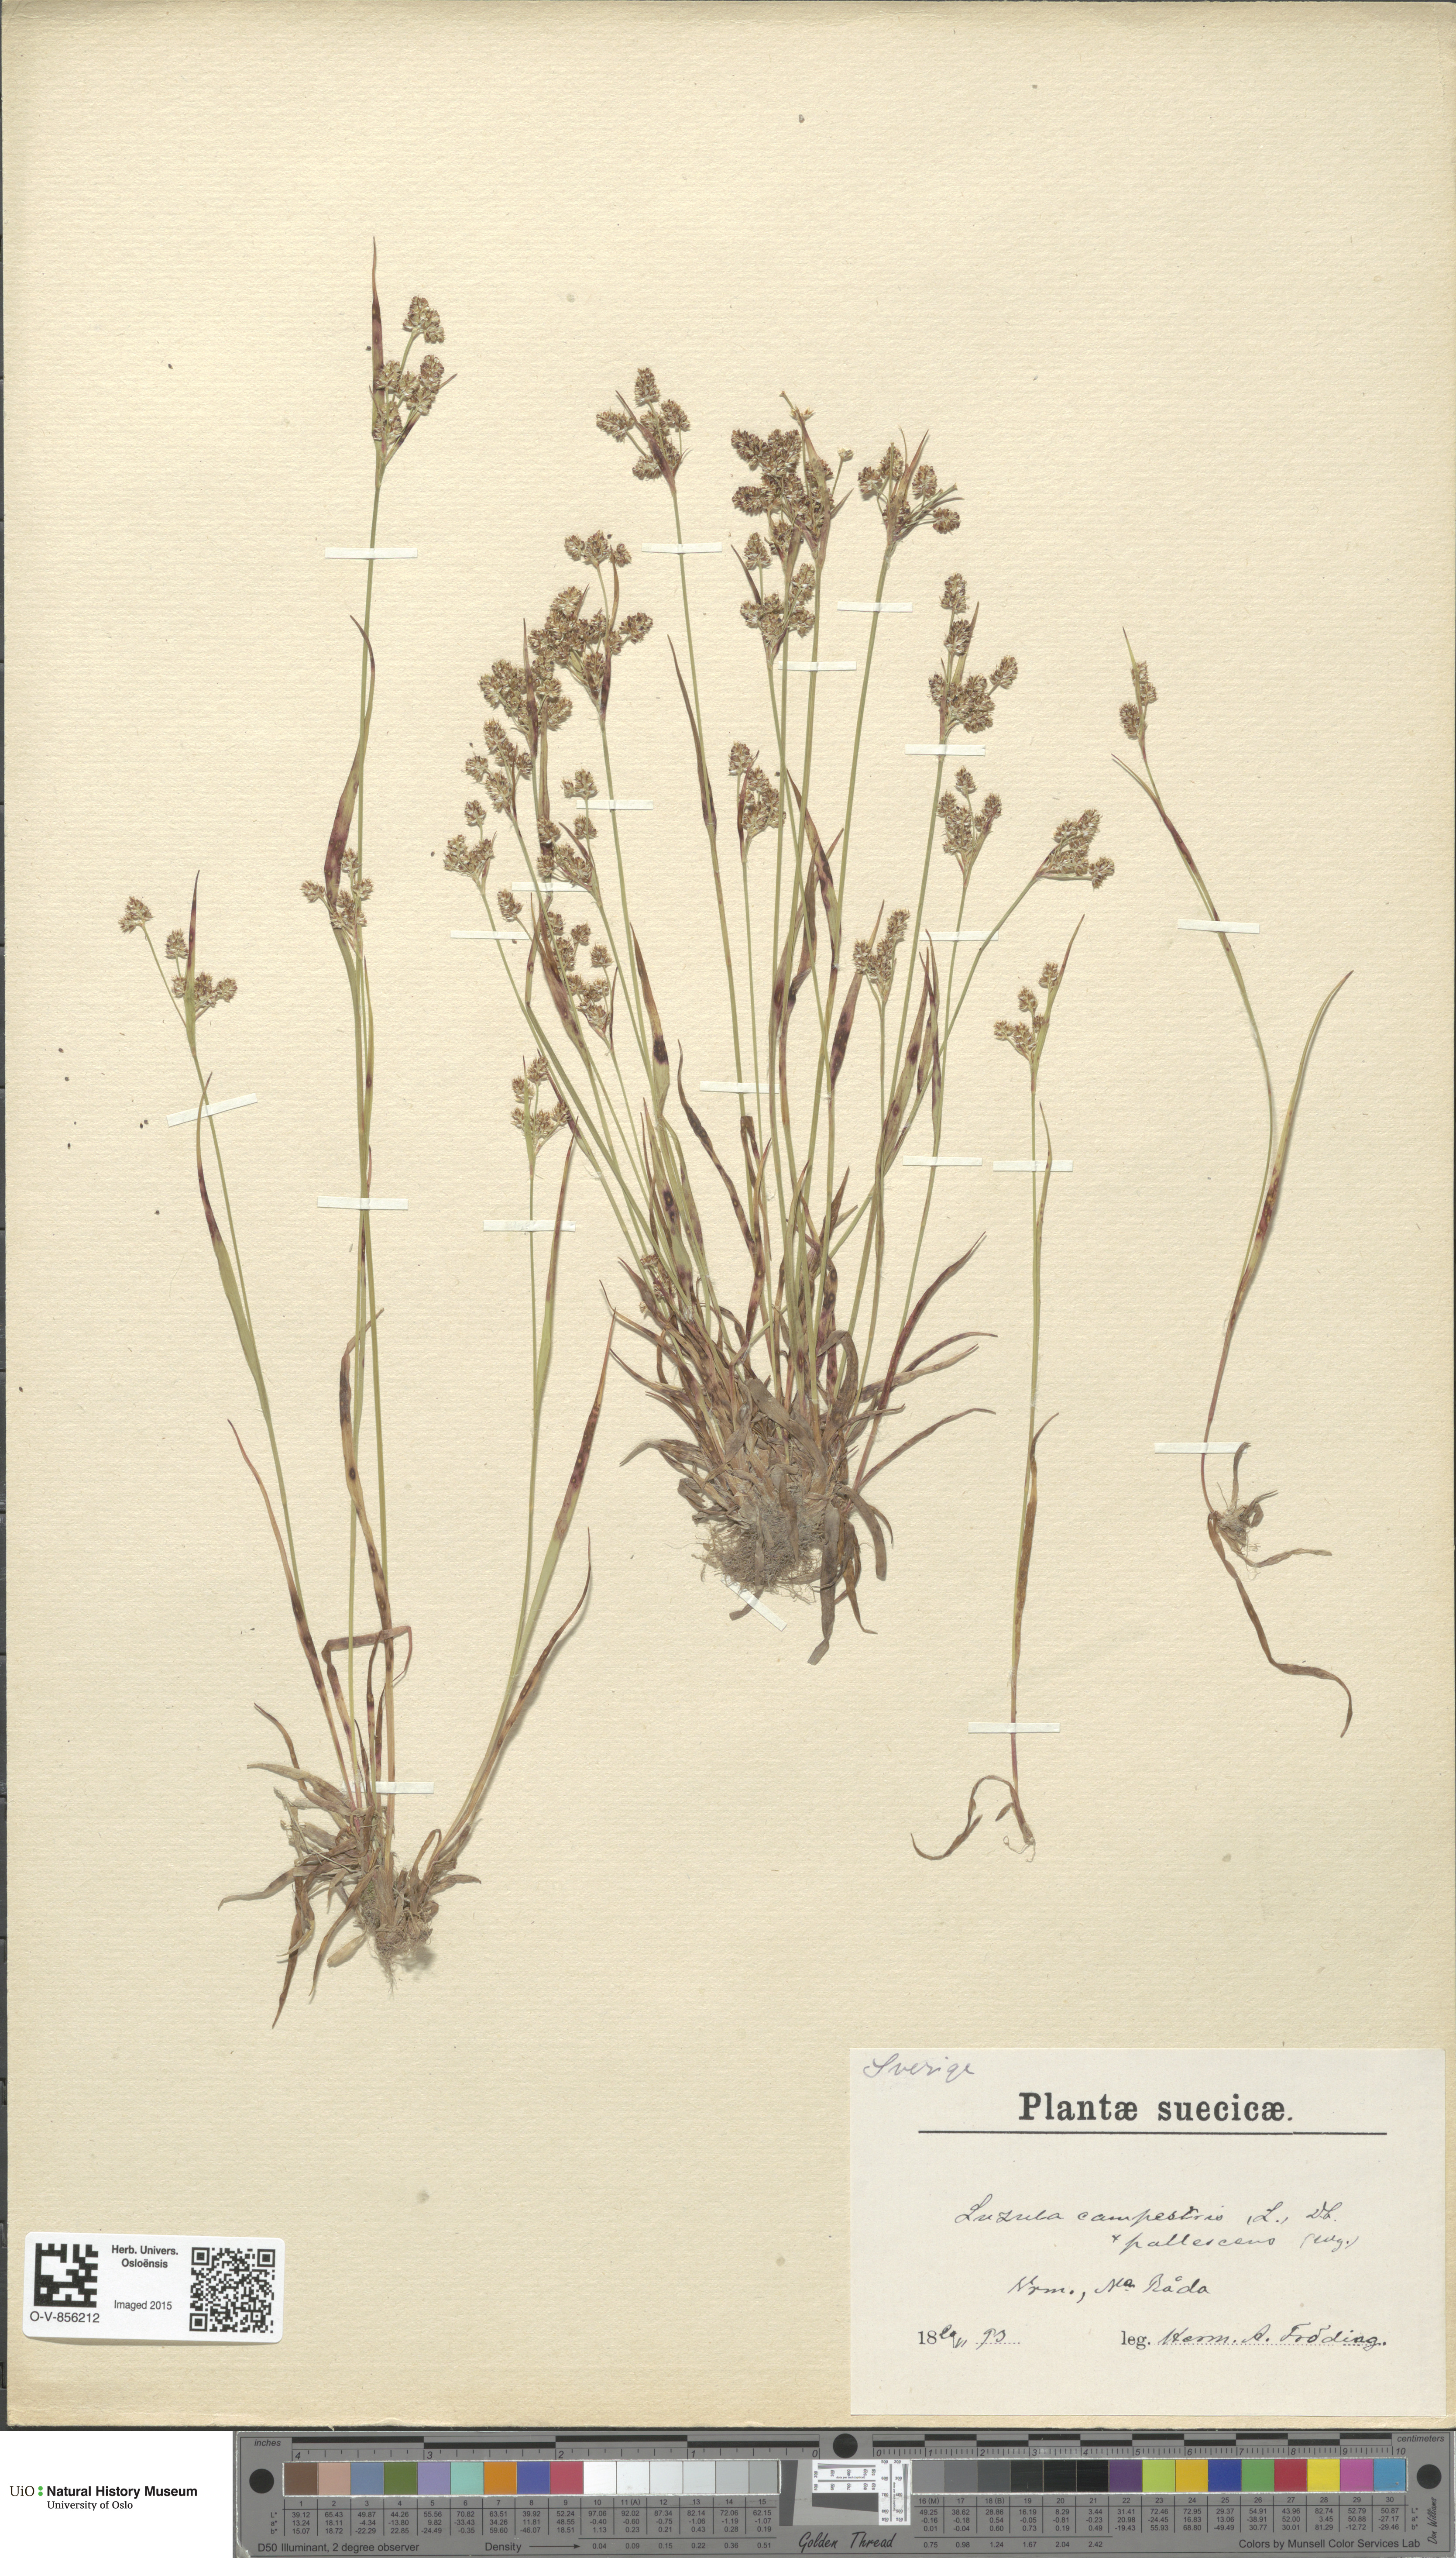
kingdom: Plantae
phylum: Tracheophyta
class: Liliopsida
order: Poales
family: Juncaceae
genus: Luzula
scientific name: Luzula pallescens
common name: Fen wood-rush
